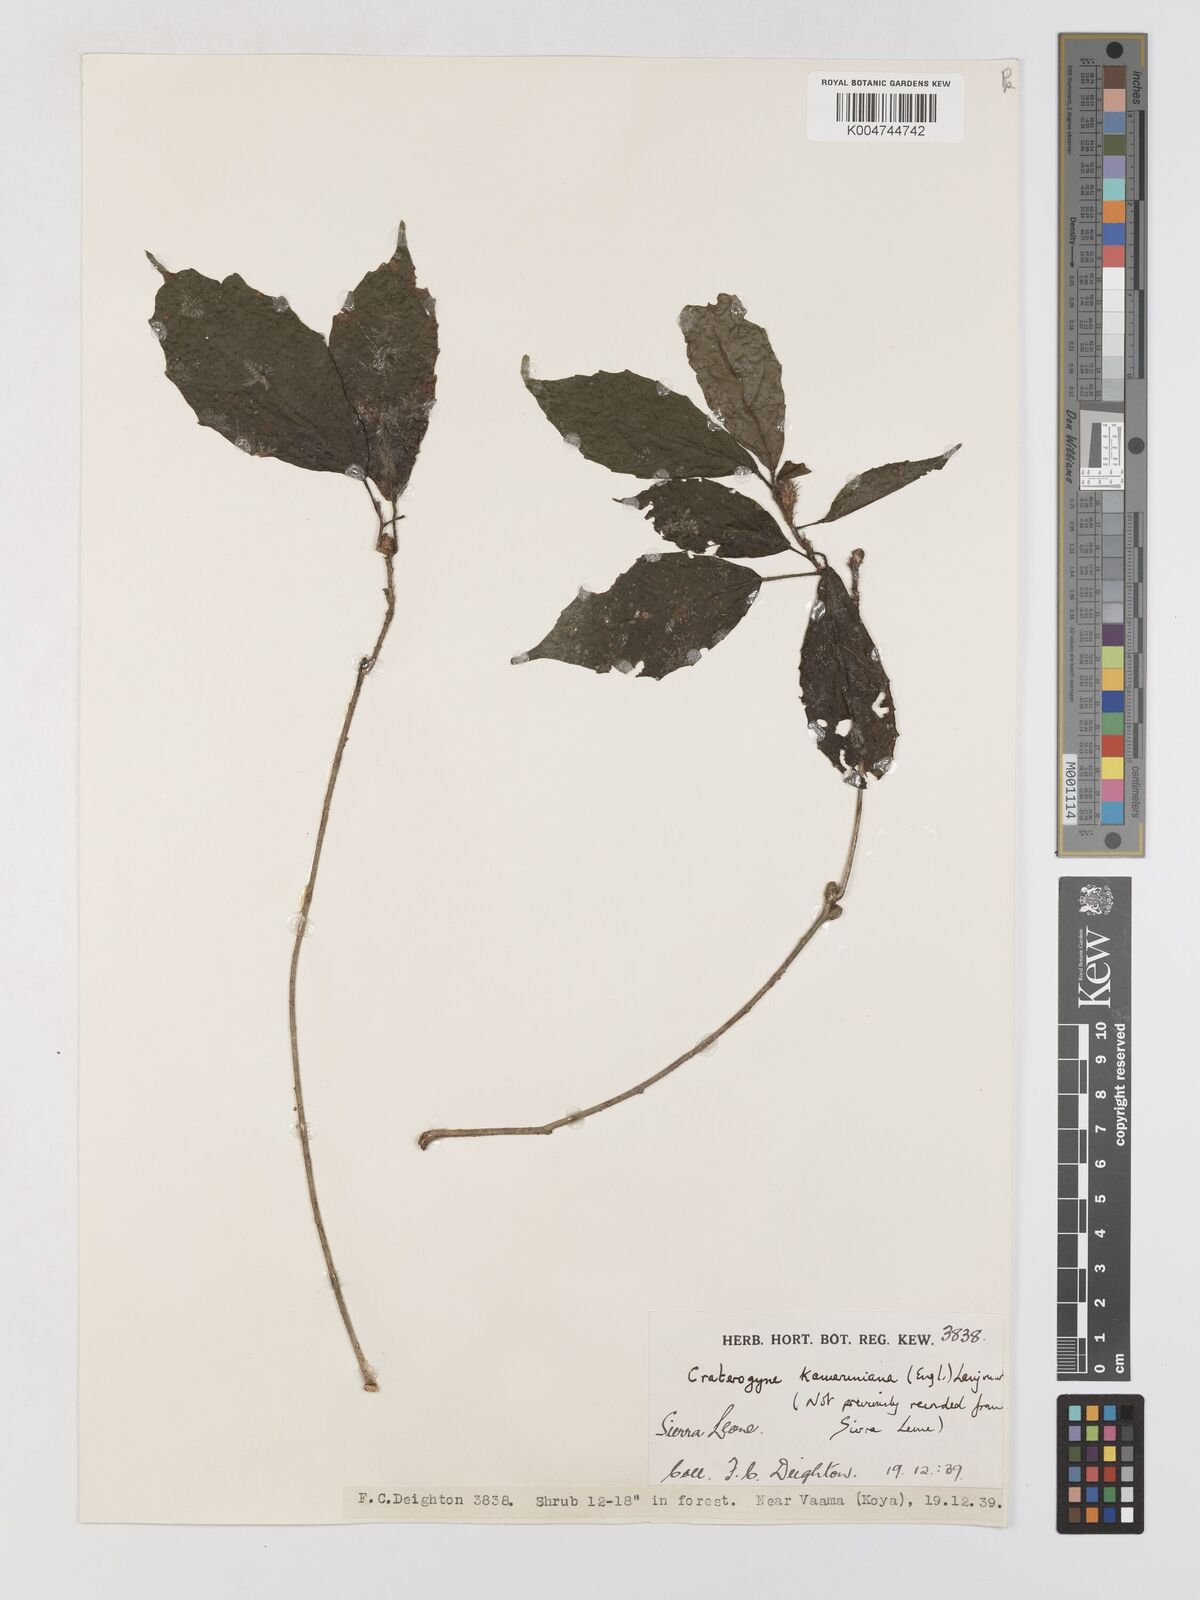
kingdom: Plantae
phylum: Tracheophyta
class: Magnoliopsida
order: Rosales
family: Moraceae
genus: Dorstenia
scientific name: Dorstenia kameruniana
